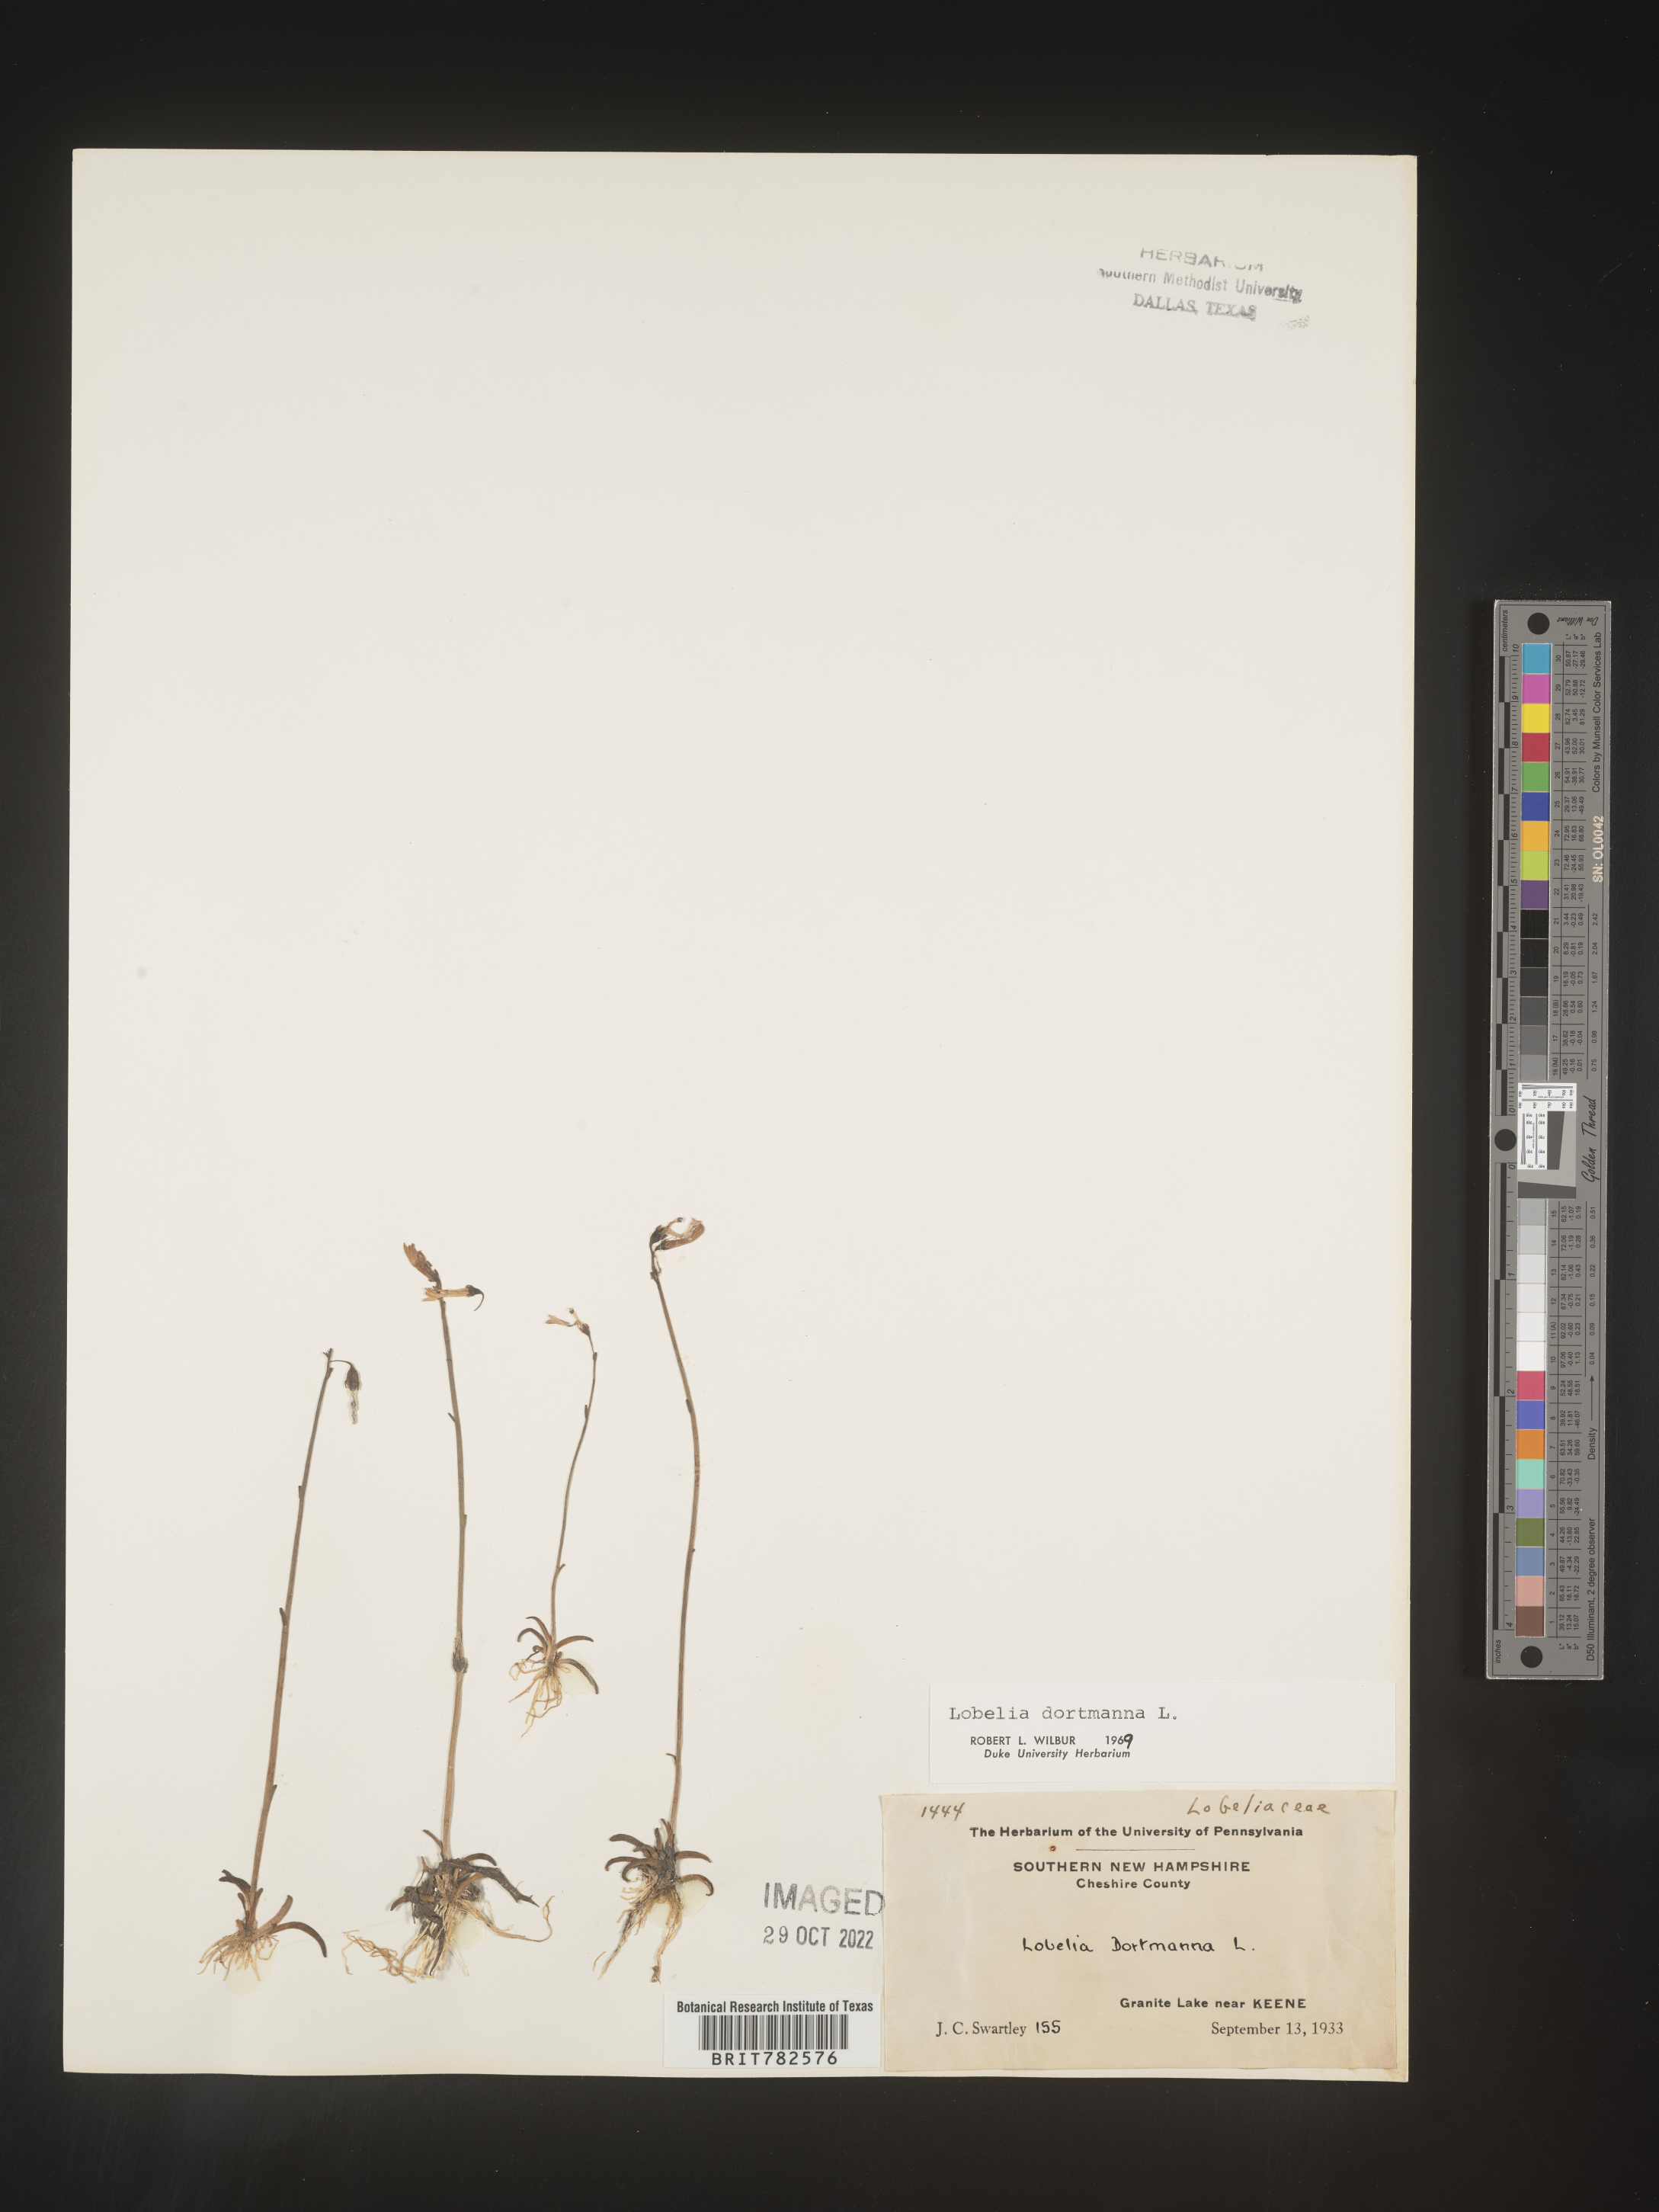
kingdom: Plantae
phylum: Tracheophyta
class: Magnoliopsida
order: Asterales
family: Campanulaceae
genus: Lobelia
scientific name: Lobelia
